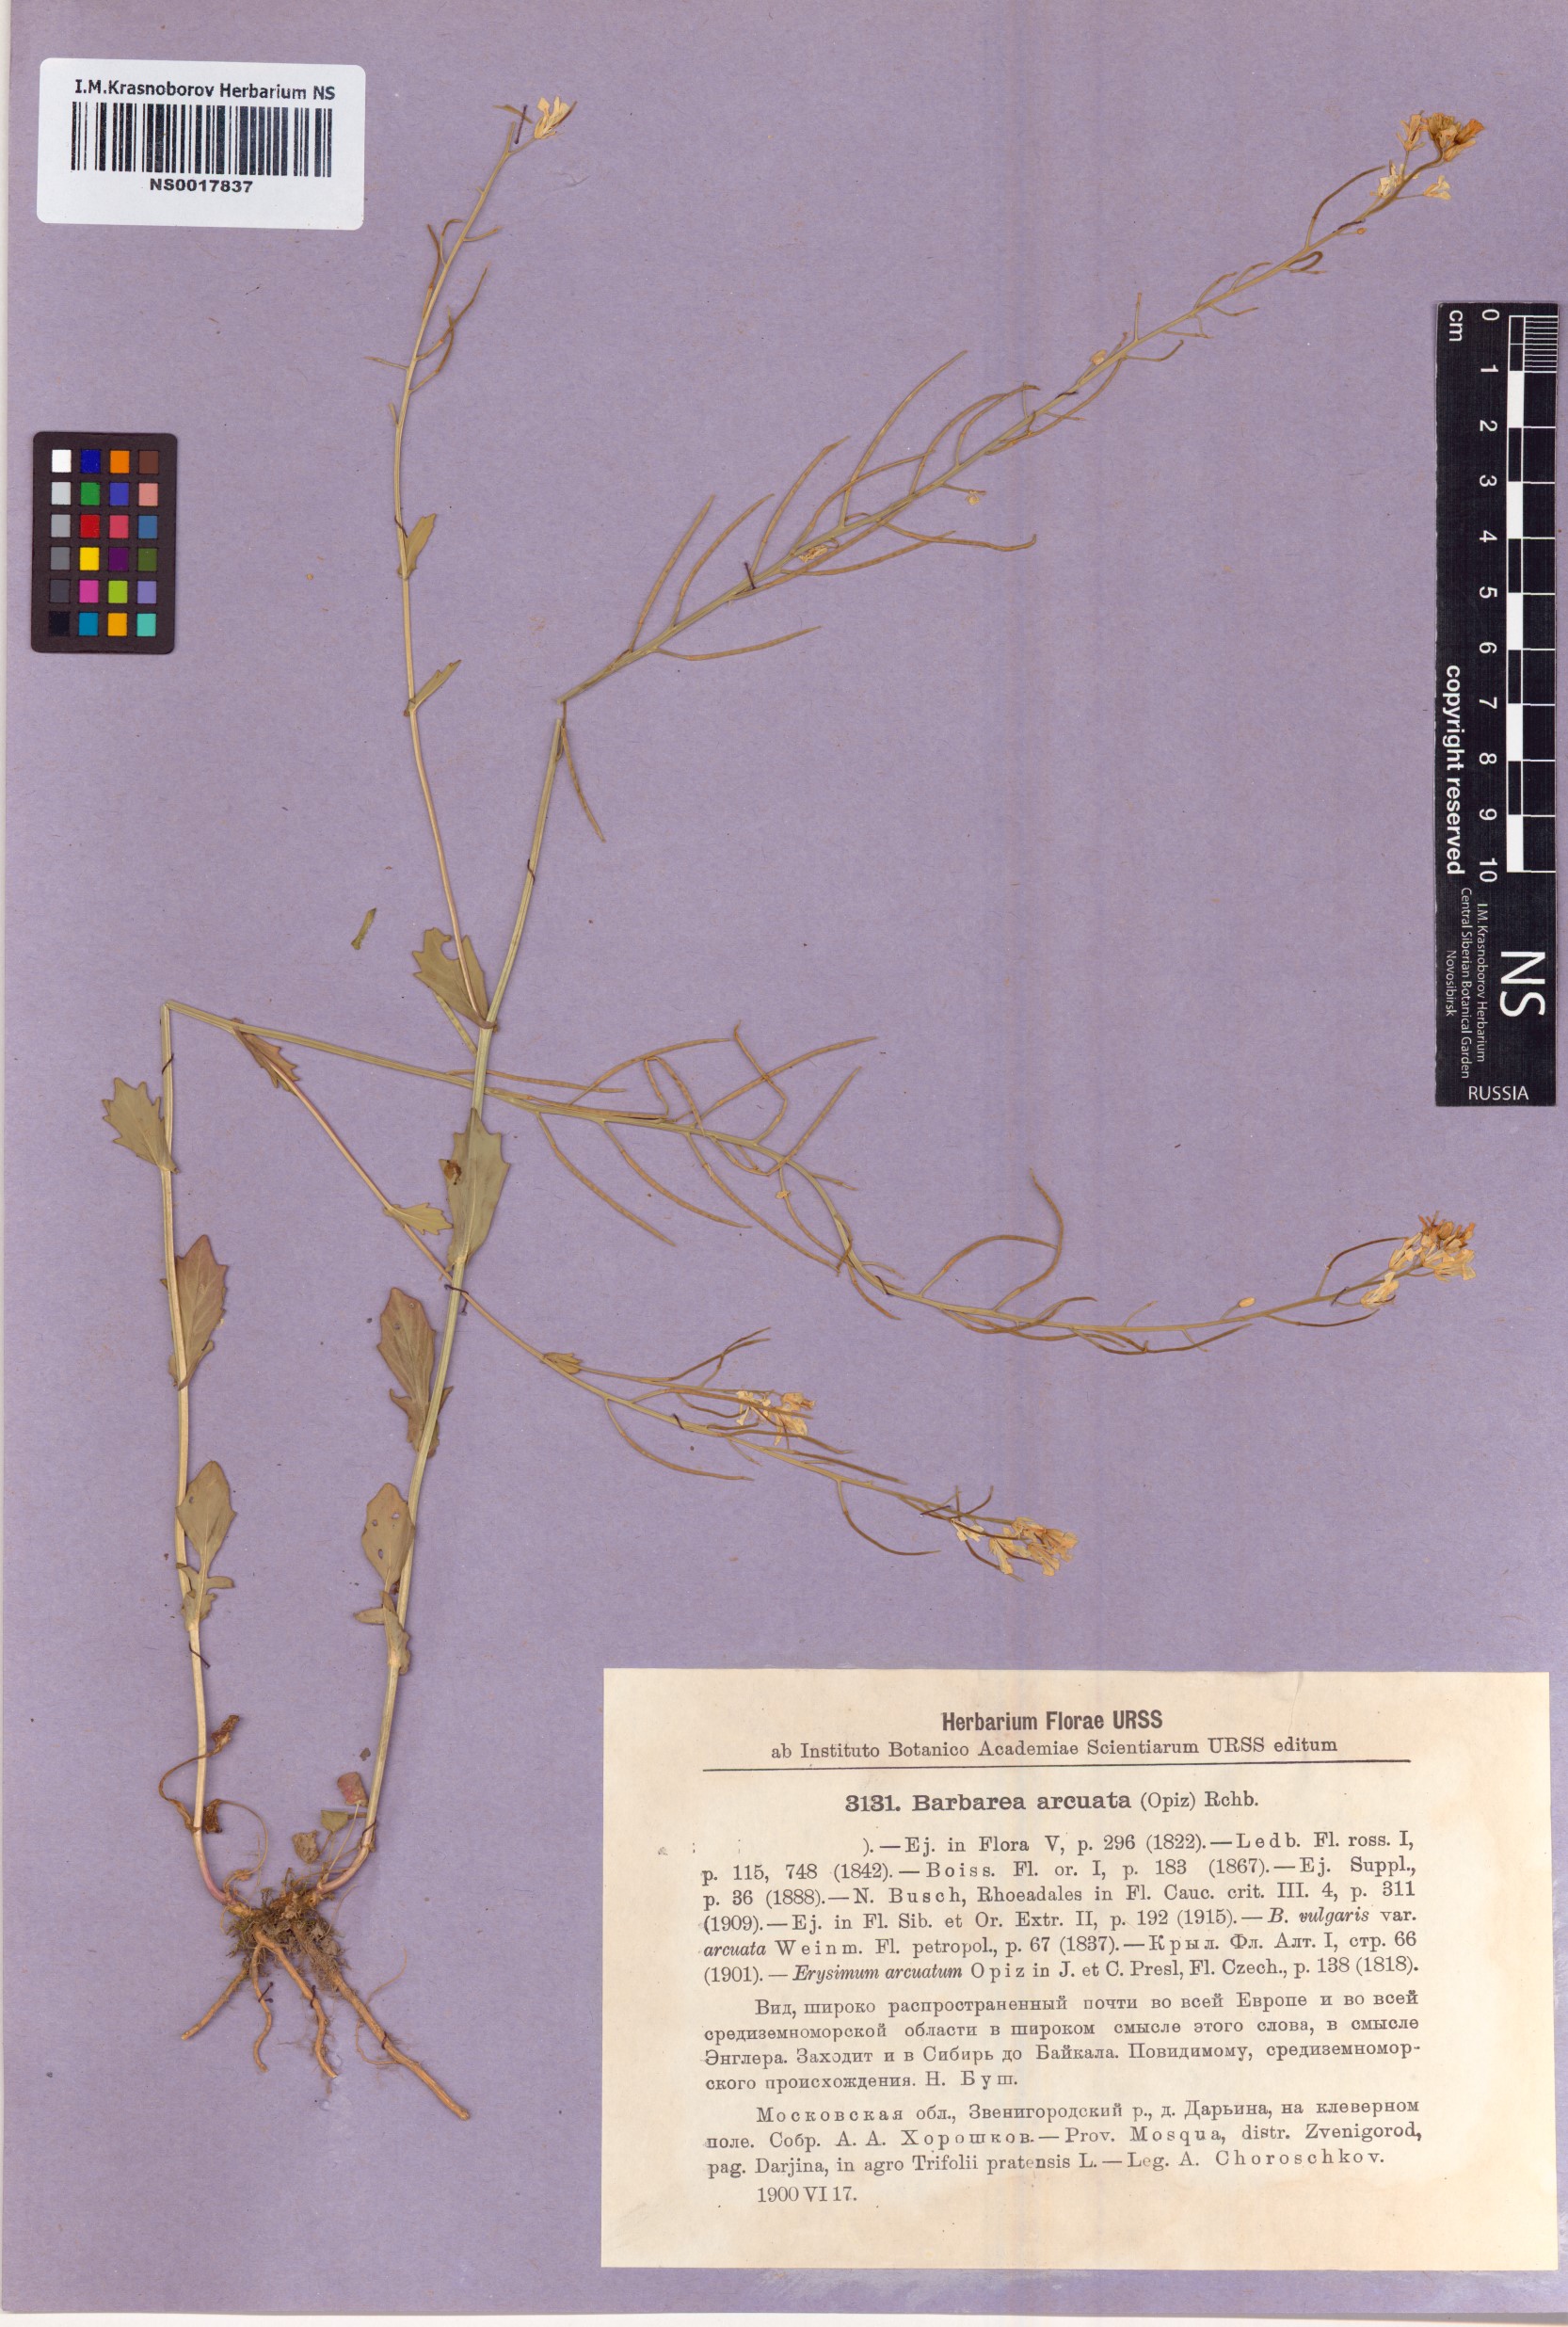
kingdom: Plantae
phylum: Tracheophyta
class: Magnoliopsida
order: Brassicales
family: Brassicaceae
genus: Barbarea
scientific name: Barbarea vulgaris
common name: Cressy-greens
